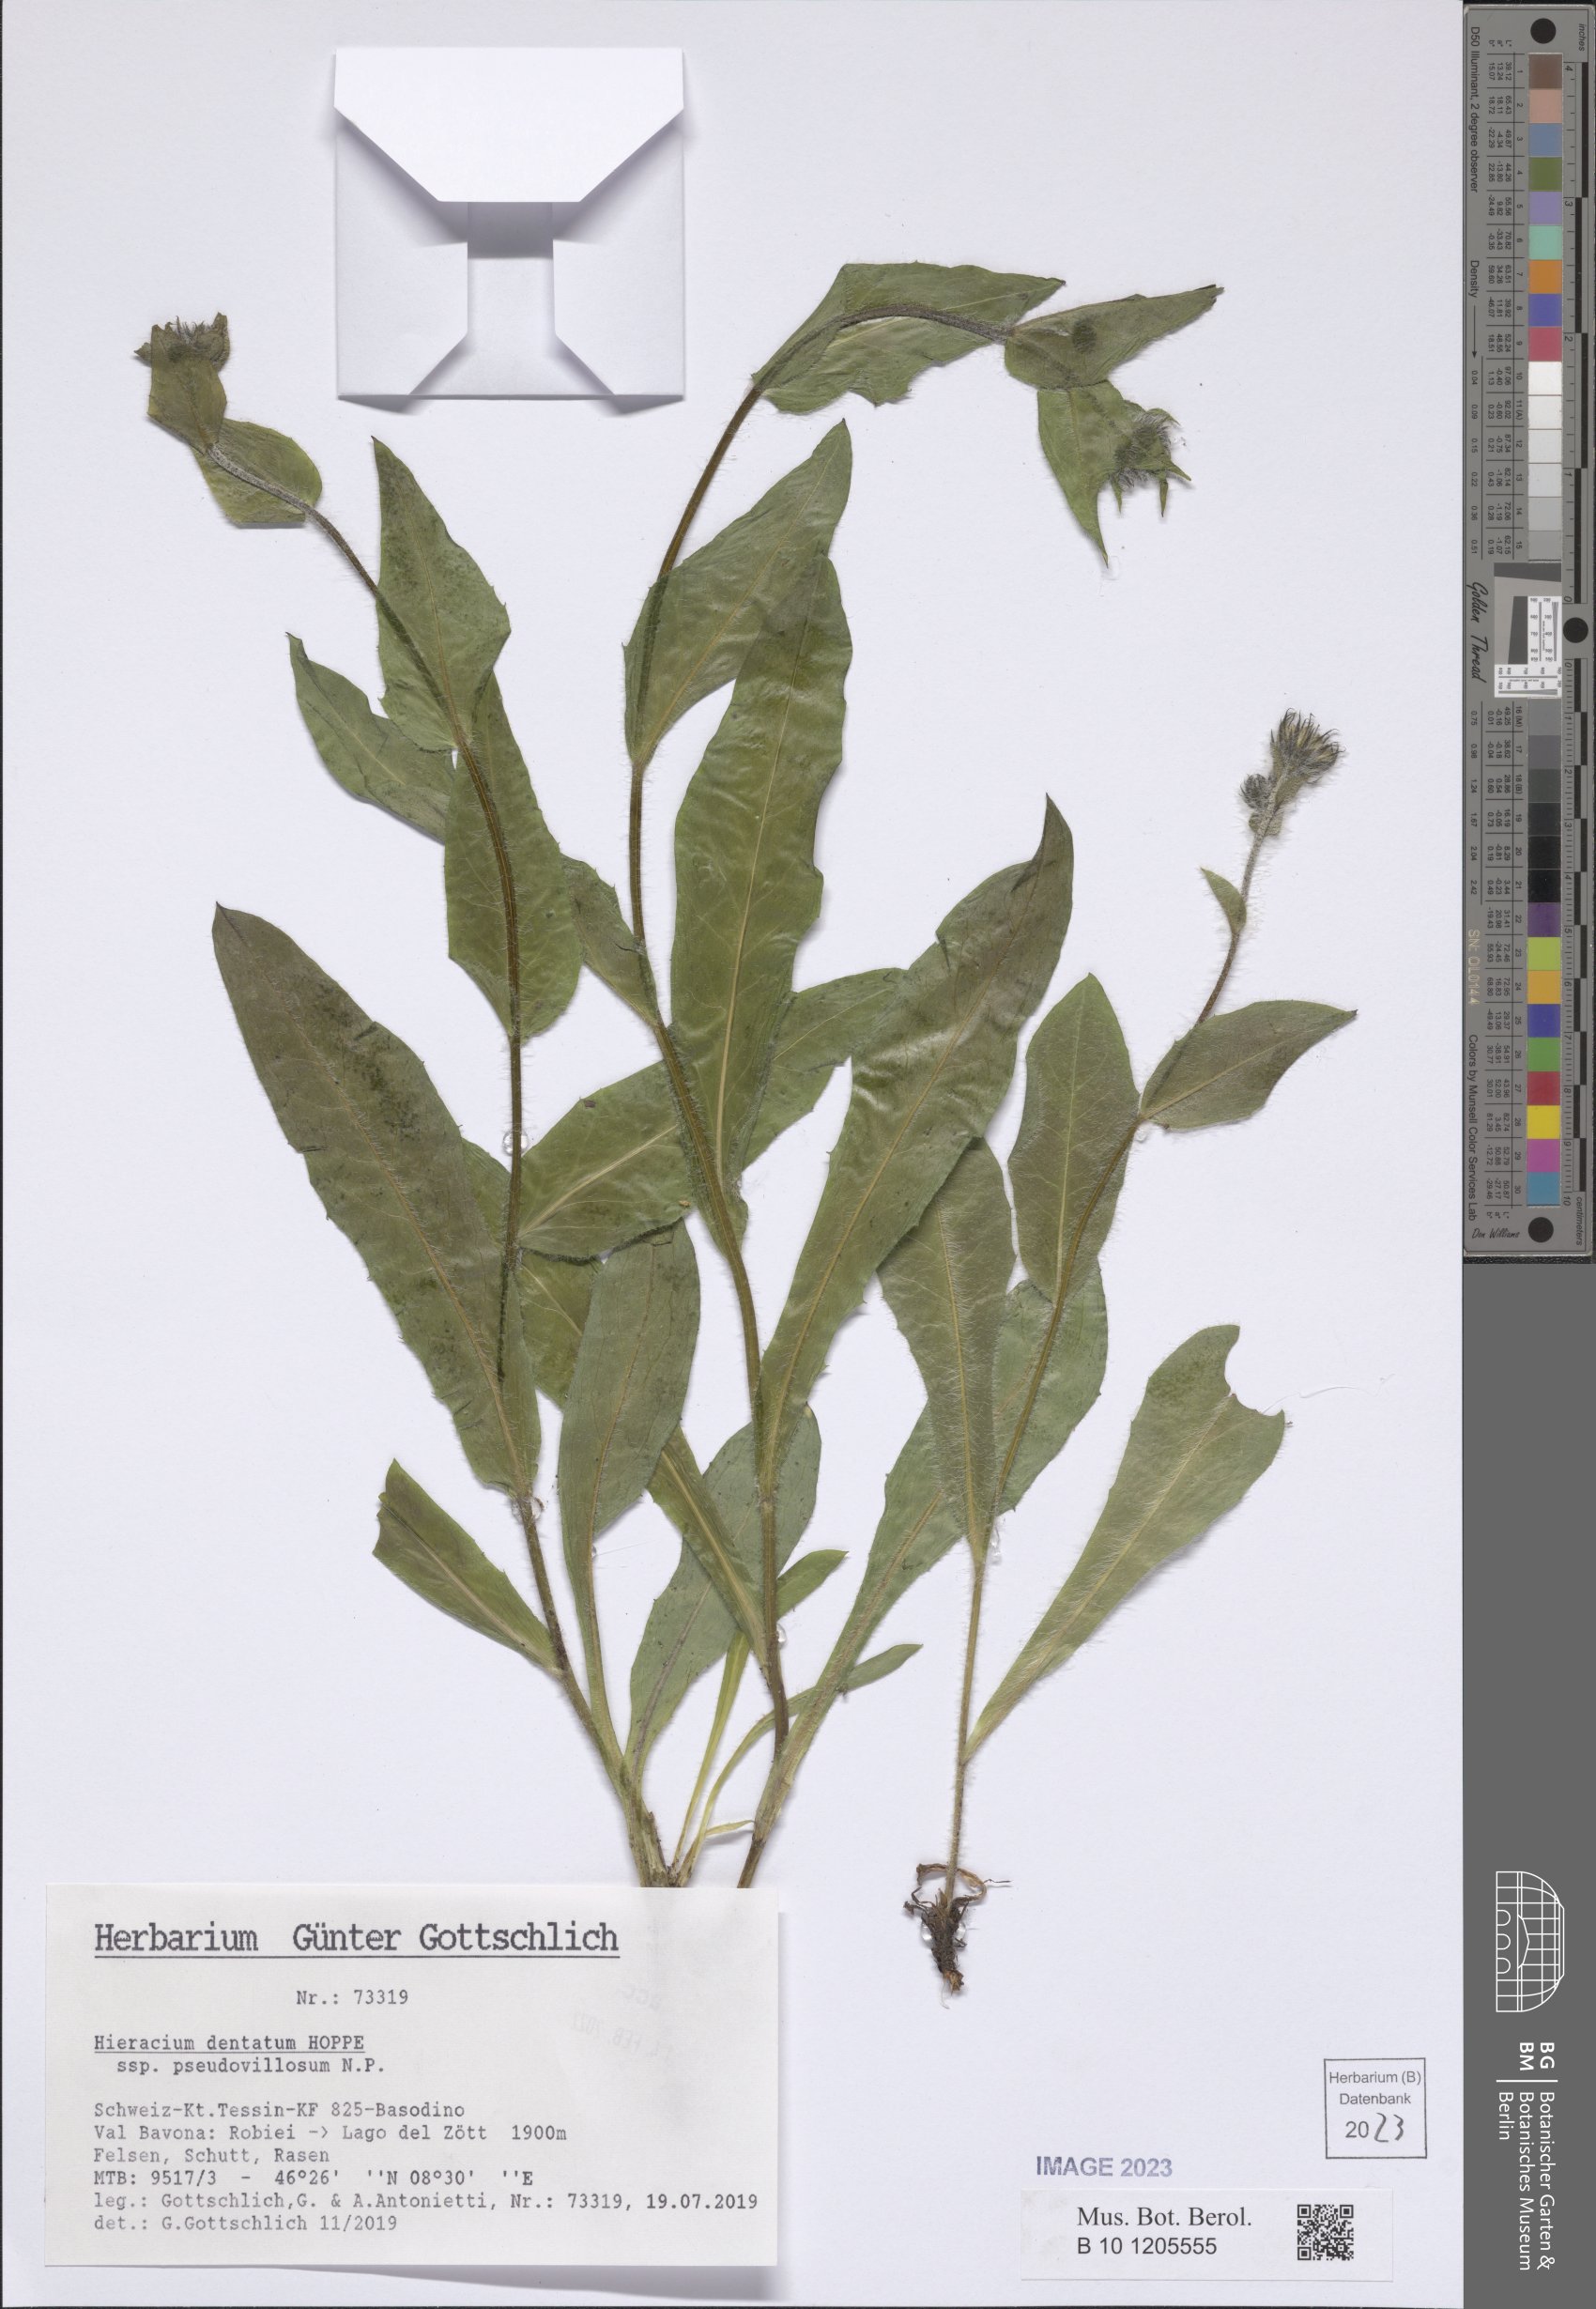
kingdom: Plantae
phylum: Tracheophyta
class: Magnoliopsida
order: Asterales
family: Asteraceae
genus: Hieracium
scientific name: Hieracium dentatum
